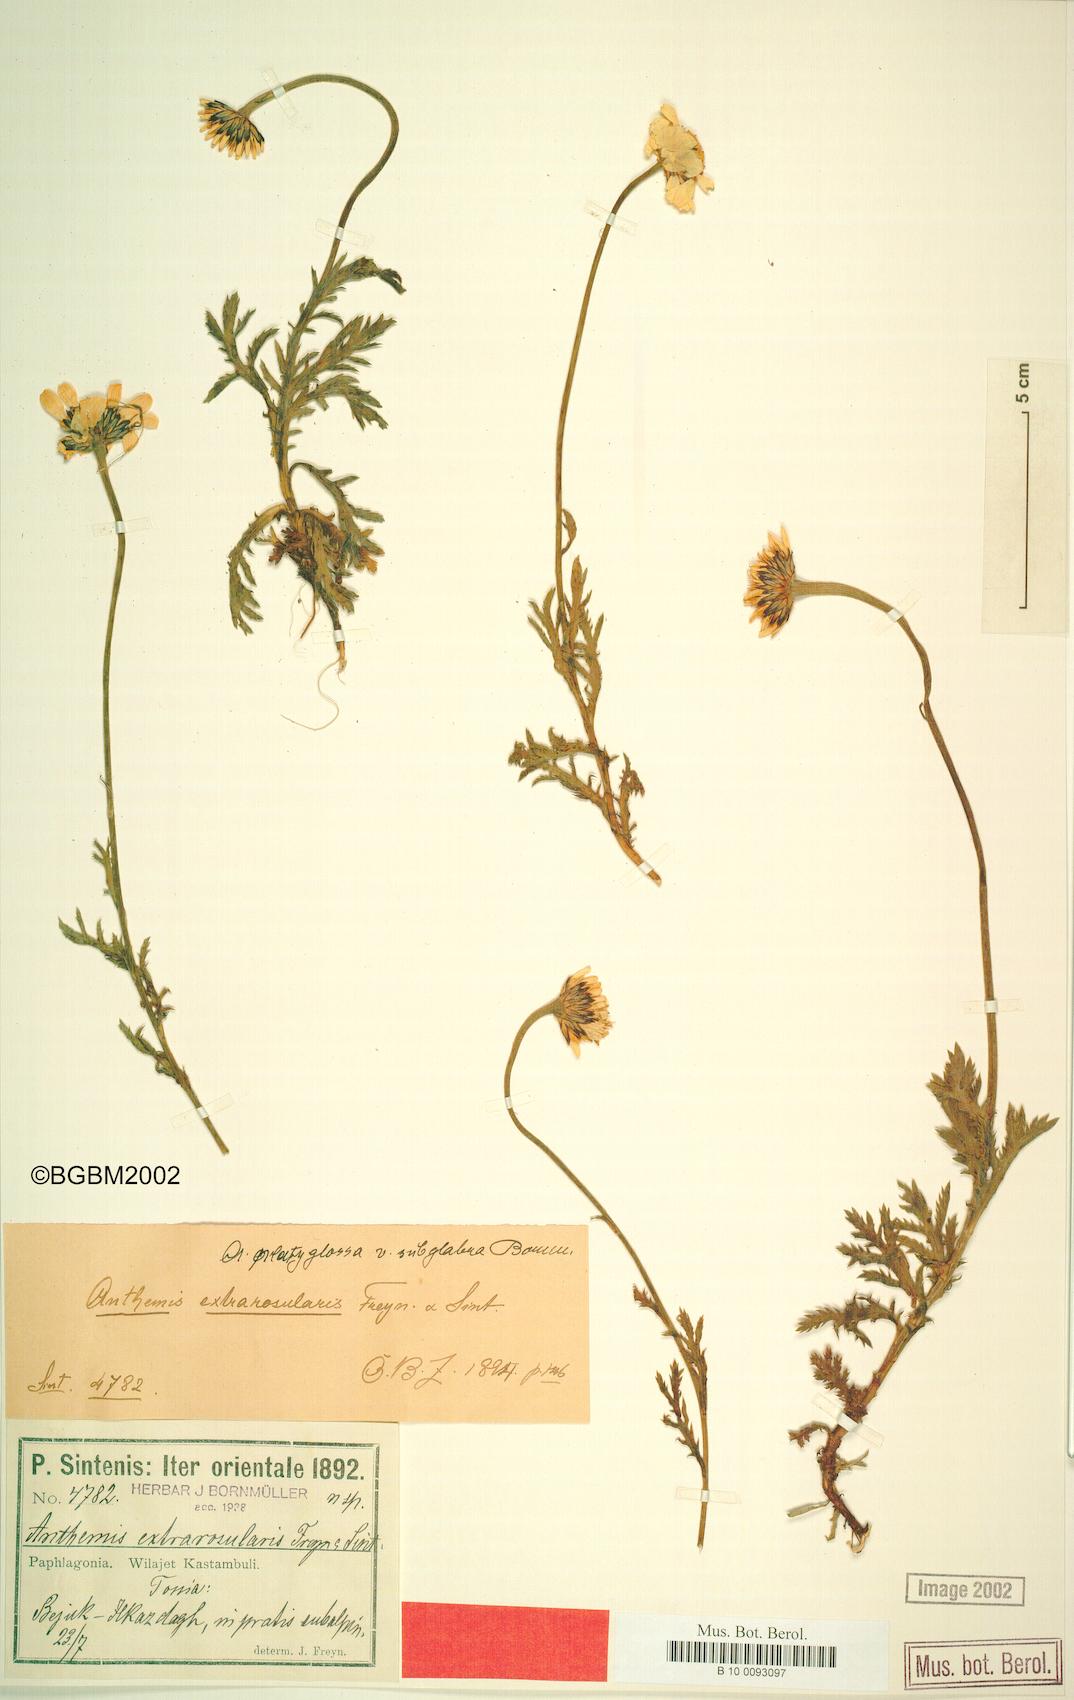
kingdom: Plantae
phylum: Tracheophyta
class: Magnoliopsida
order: Asterales
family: Asteraceae
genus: Cota
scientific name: Cota melanoloma
